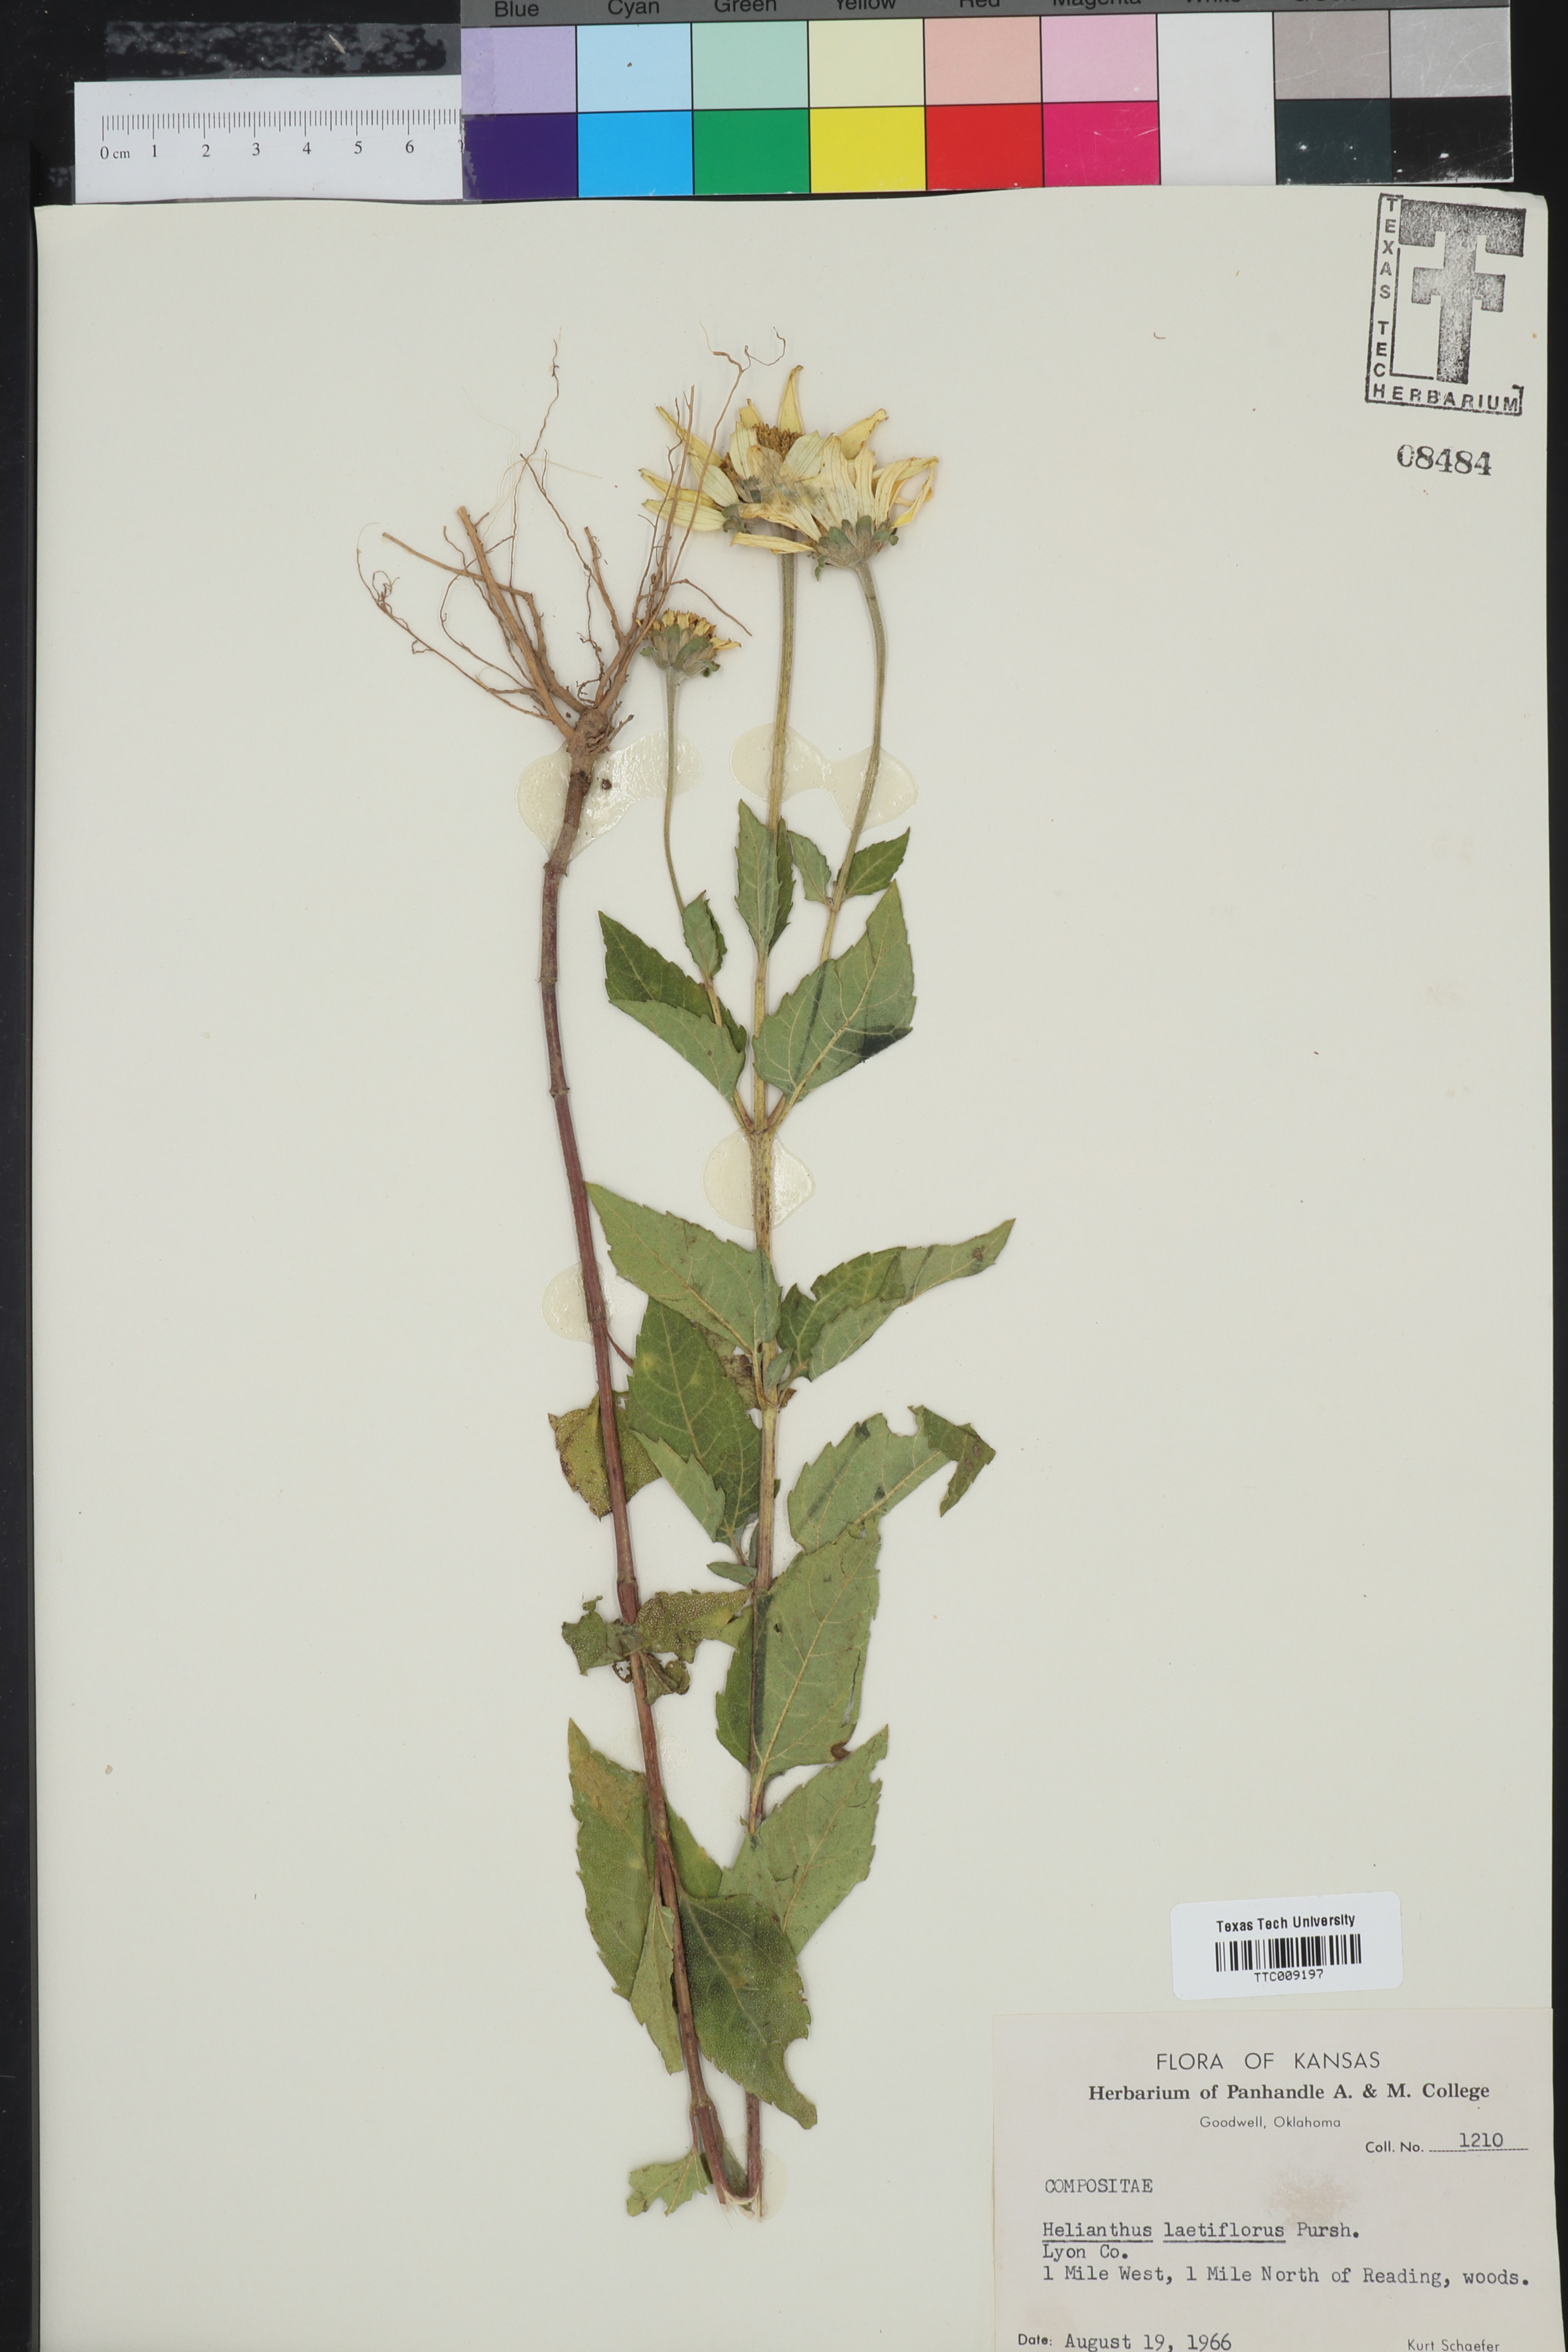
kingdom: Plantae
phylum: Tracheophyta
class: Magnoliopsida
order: Asterales
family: Asteraceae
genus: Helianthus
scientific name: Helianthus laetiflorus
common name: Perennial sunflower
